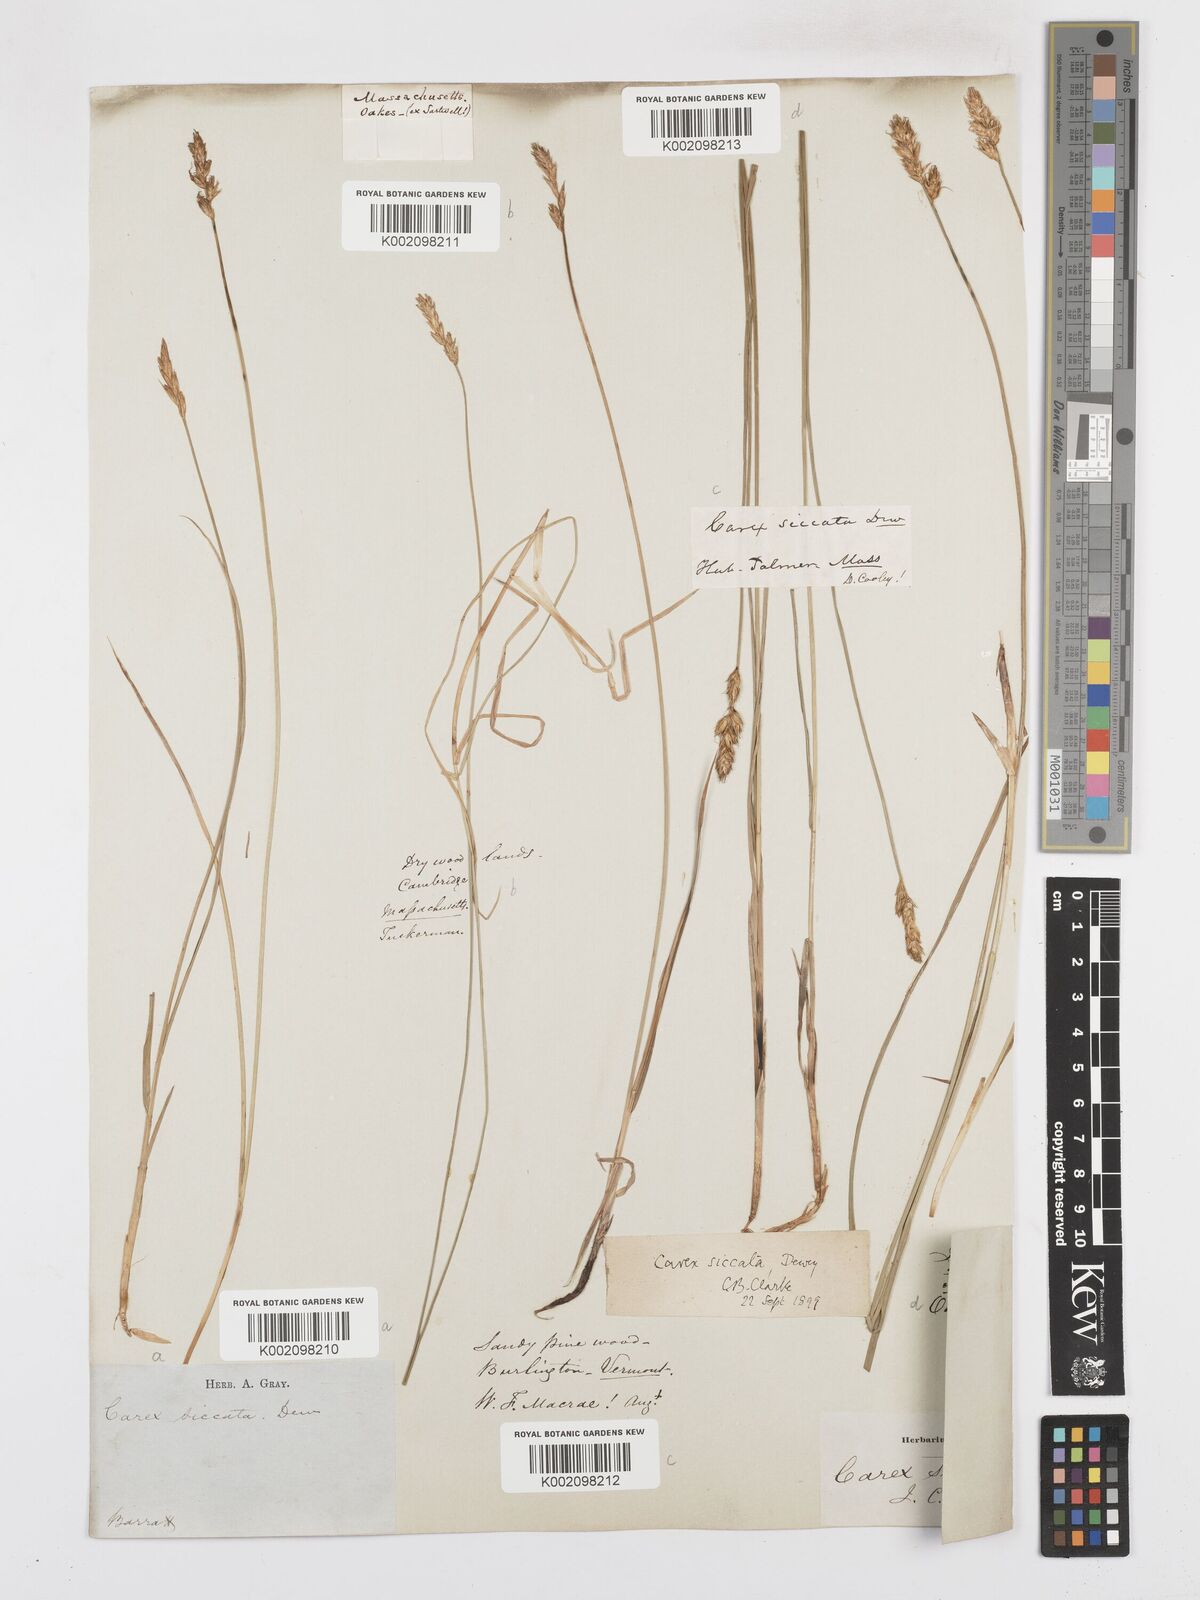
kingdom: Plantae
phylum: Tracheophyta
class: Liliopsida
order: Poales
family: Cyperaceae
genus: Carex
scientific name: Carex foenea
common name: Bronze sedge
